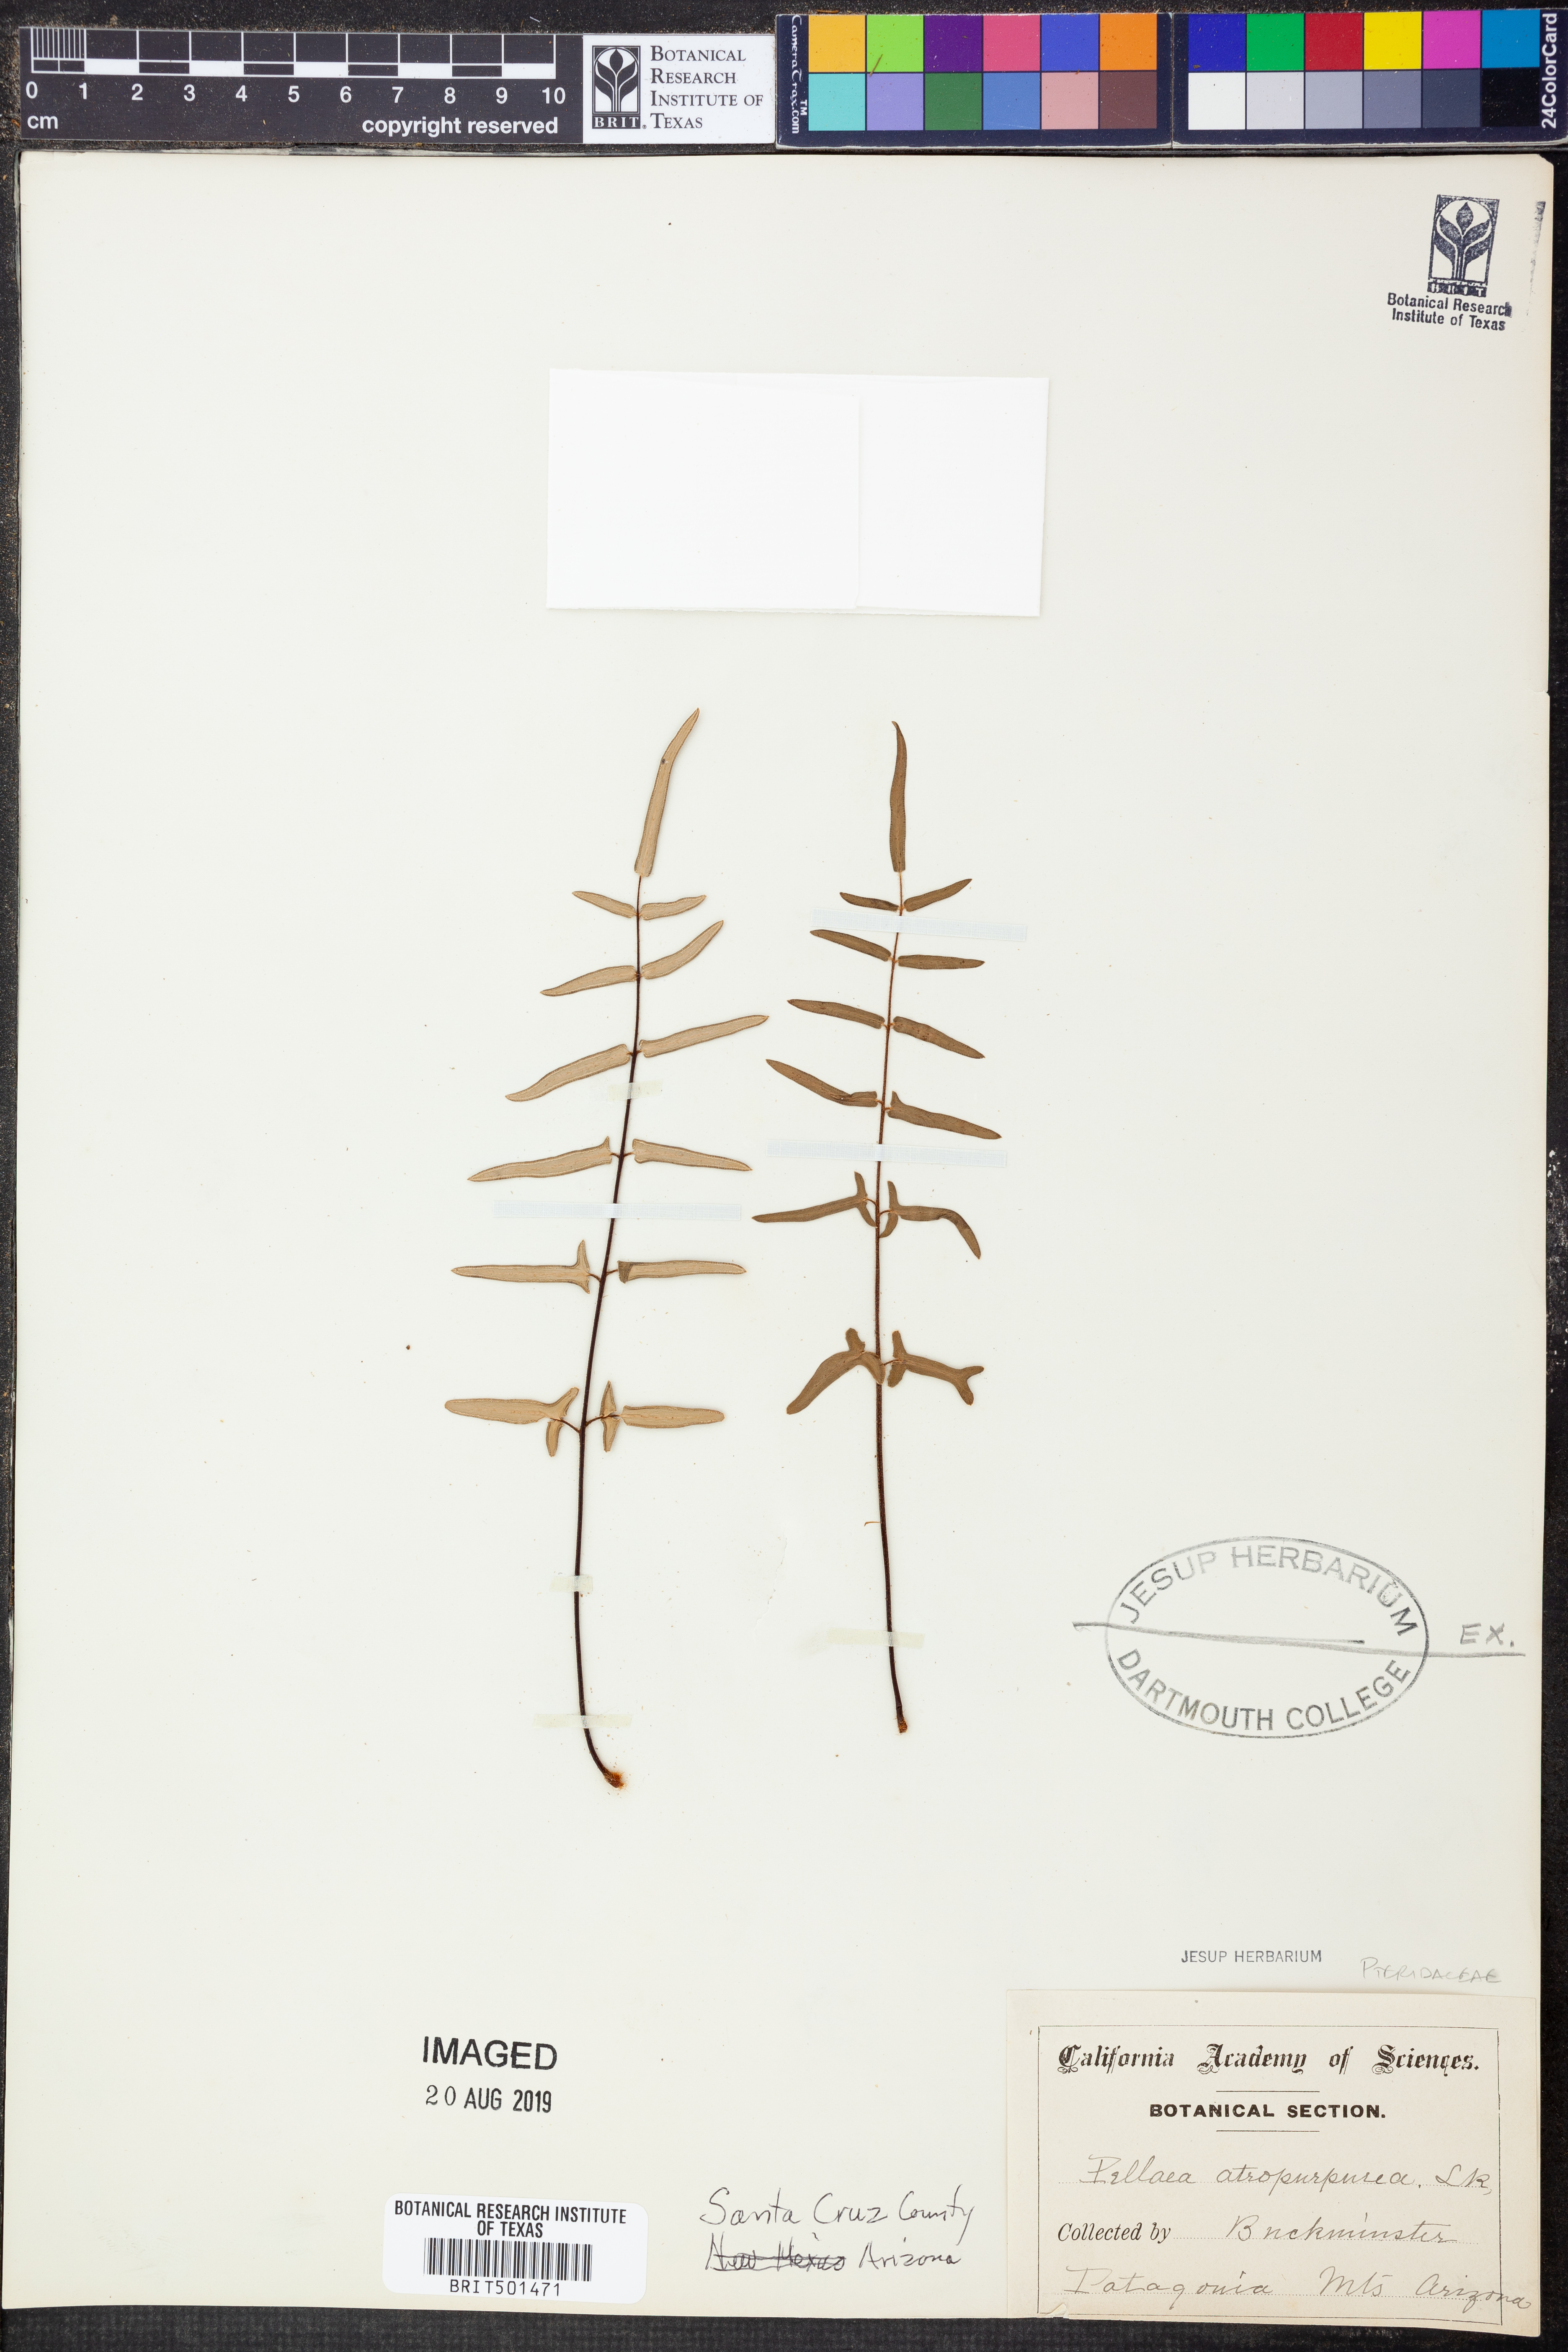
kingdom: Plantae
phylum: Tracheophyta
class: Polypodiopsida
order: Polypodiales
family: Pteridaceae
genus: Pellaea
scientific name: Pellaea atropurpurea
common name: Hairy cliffbrake
